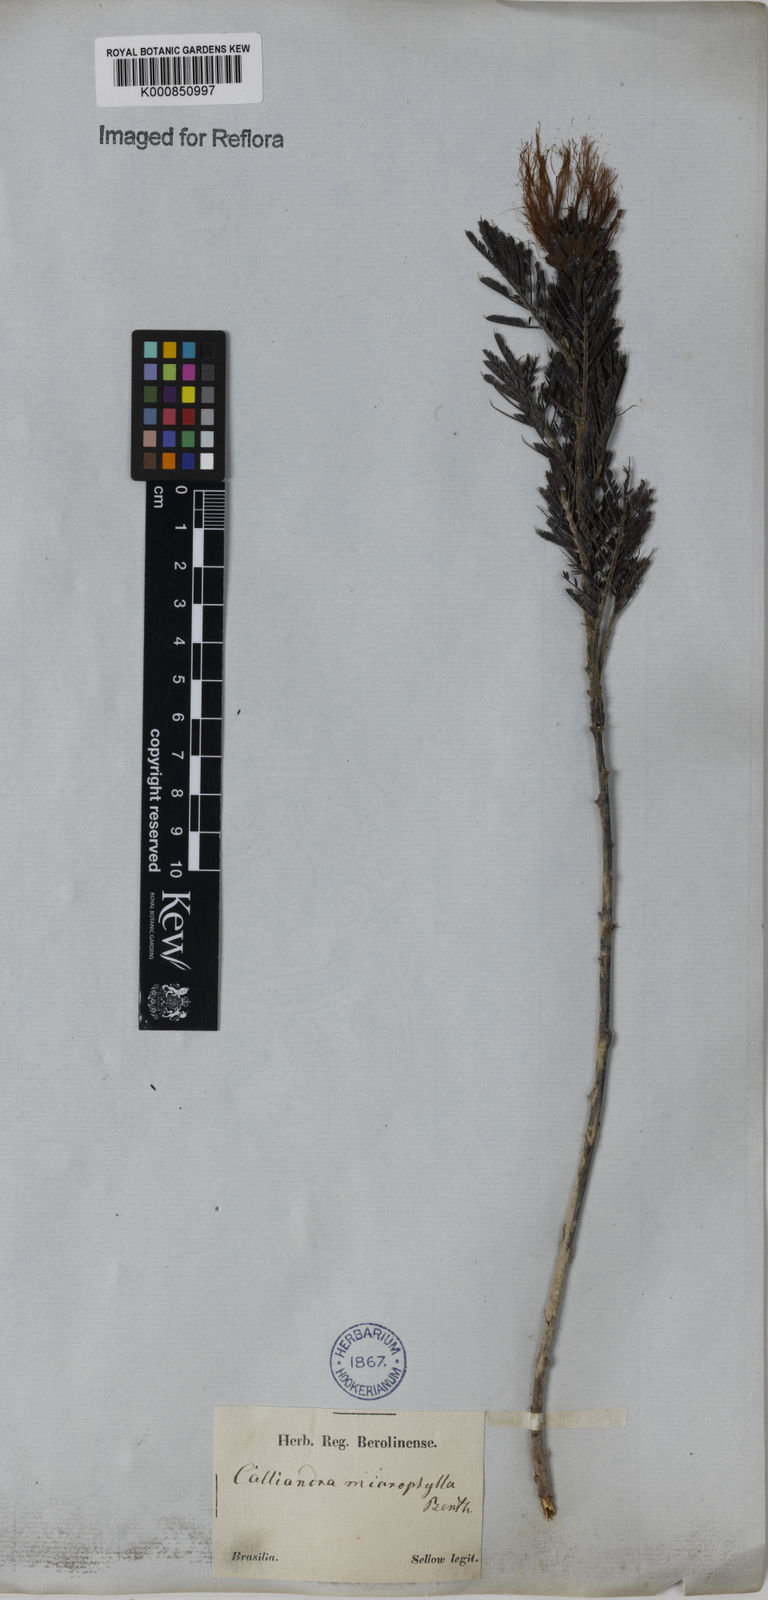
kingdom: Plantae
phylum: Tracheophyta
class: Magnoliopsida
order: Fabales
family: Fabaceae
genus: Calliandra
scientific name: Calliandra parvifolia
